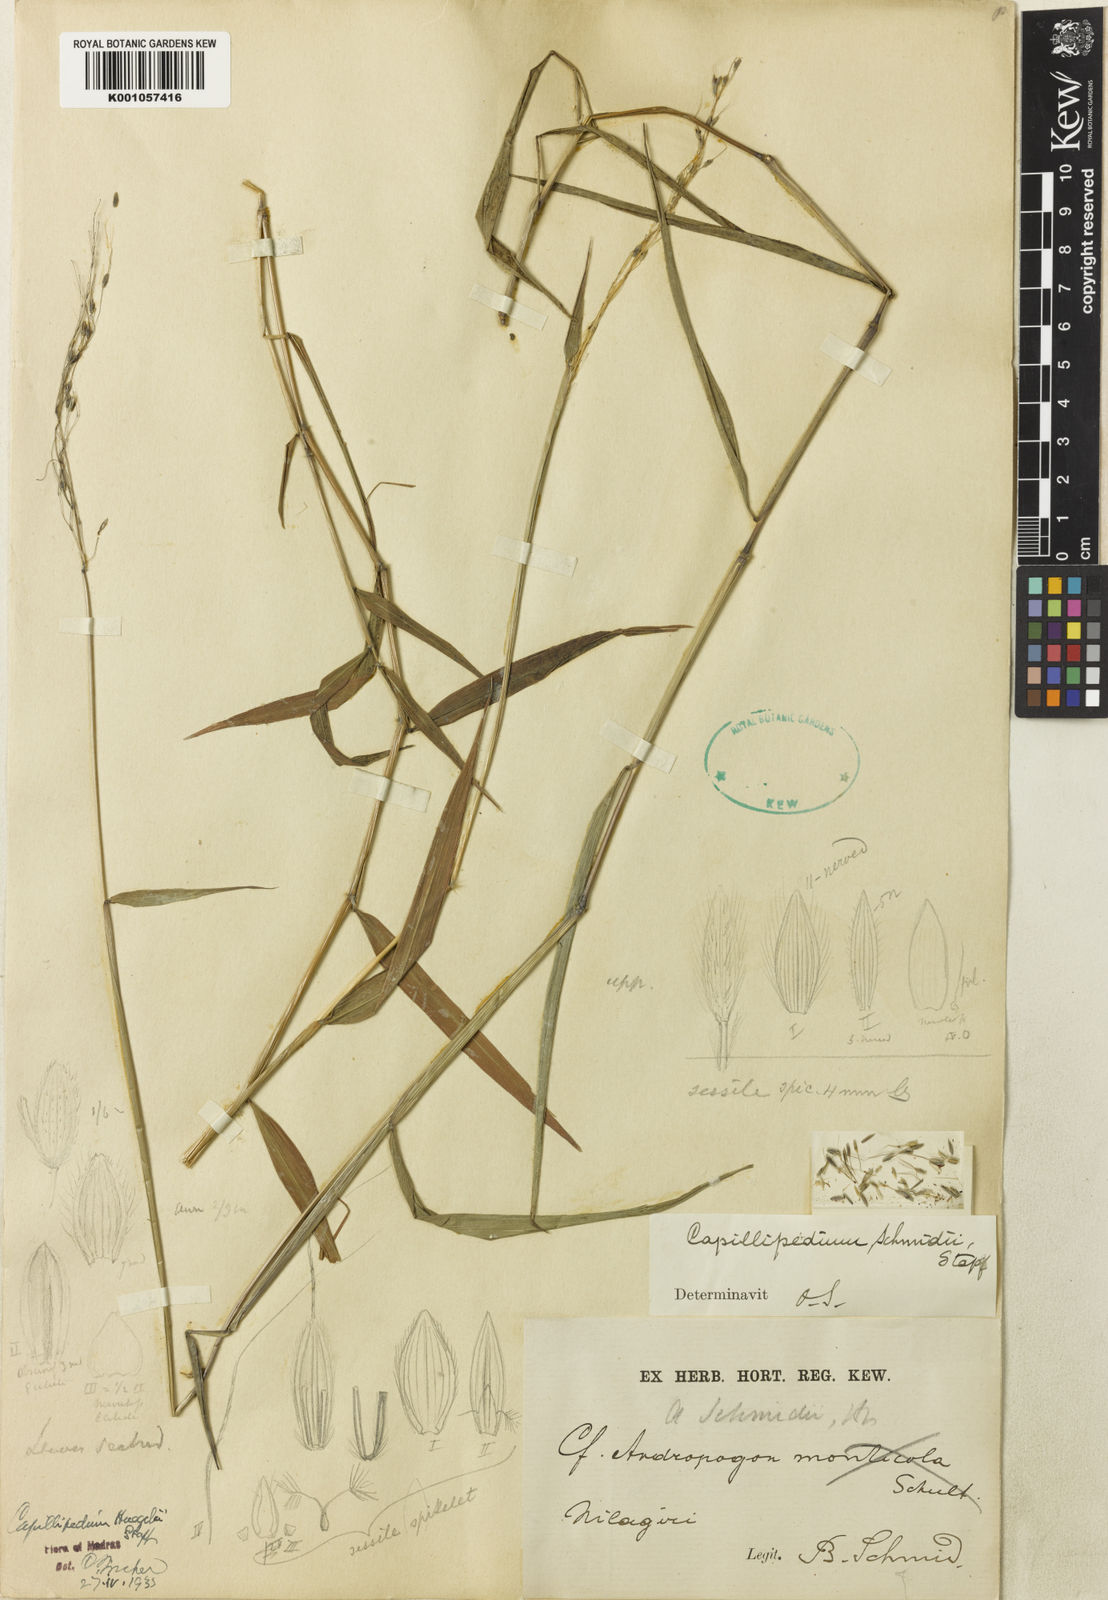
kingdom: Plantae
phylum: Tracheophyta
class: Liliopsida
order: Poales
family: Poaceae
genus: Capillipedium
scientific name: Capillipedium
